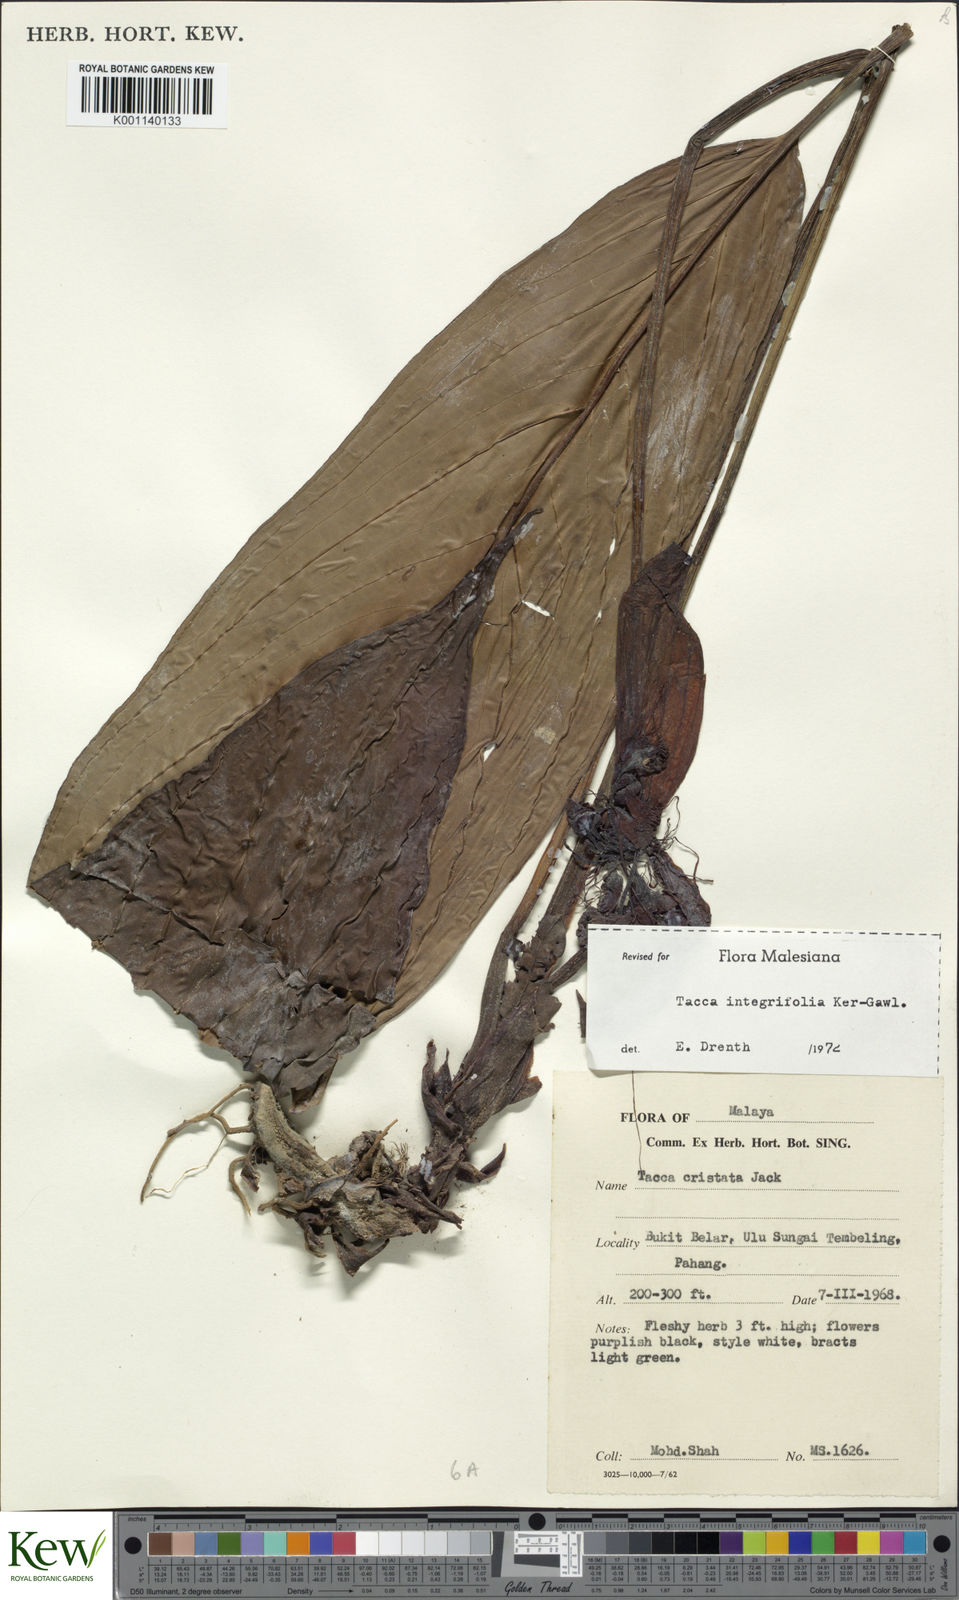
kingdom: Plantae
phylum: Tracheophyta
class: Liliopsida
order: Dioscoreales
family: Dioscoreaceae
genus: Tacca
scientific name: Tacca integrifolia
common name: Batplant
